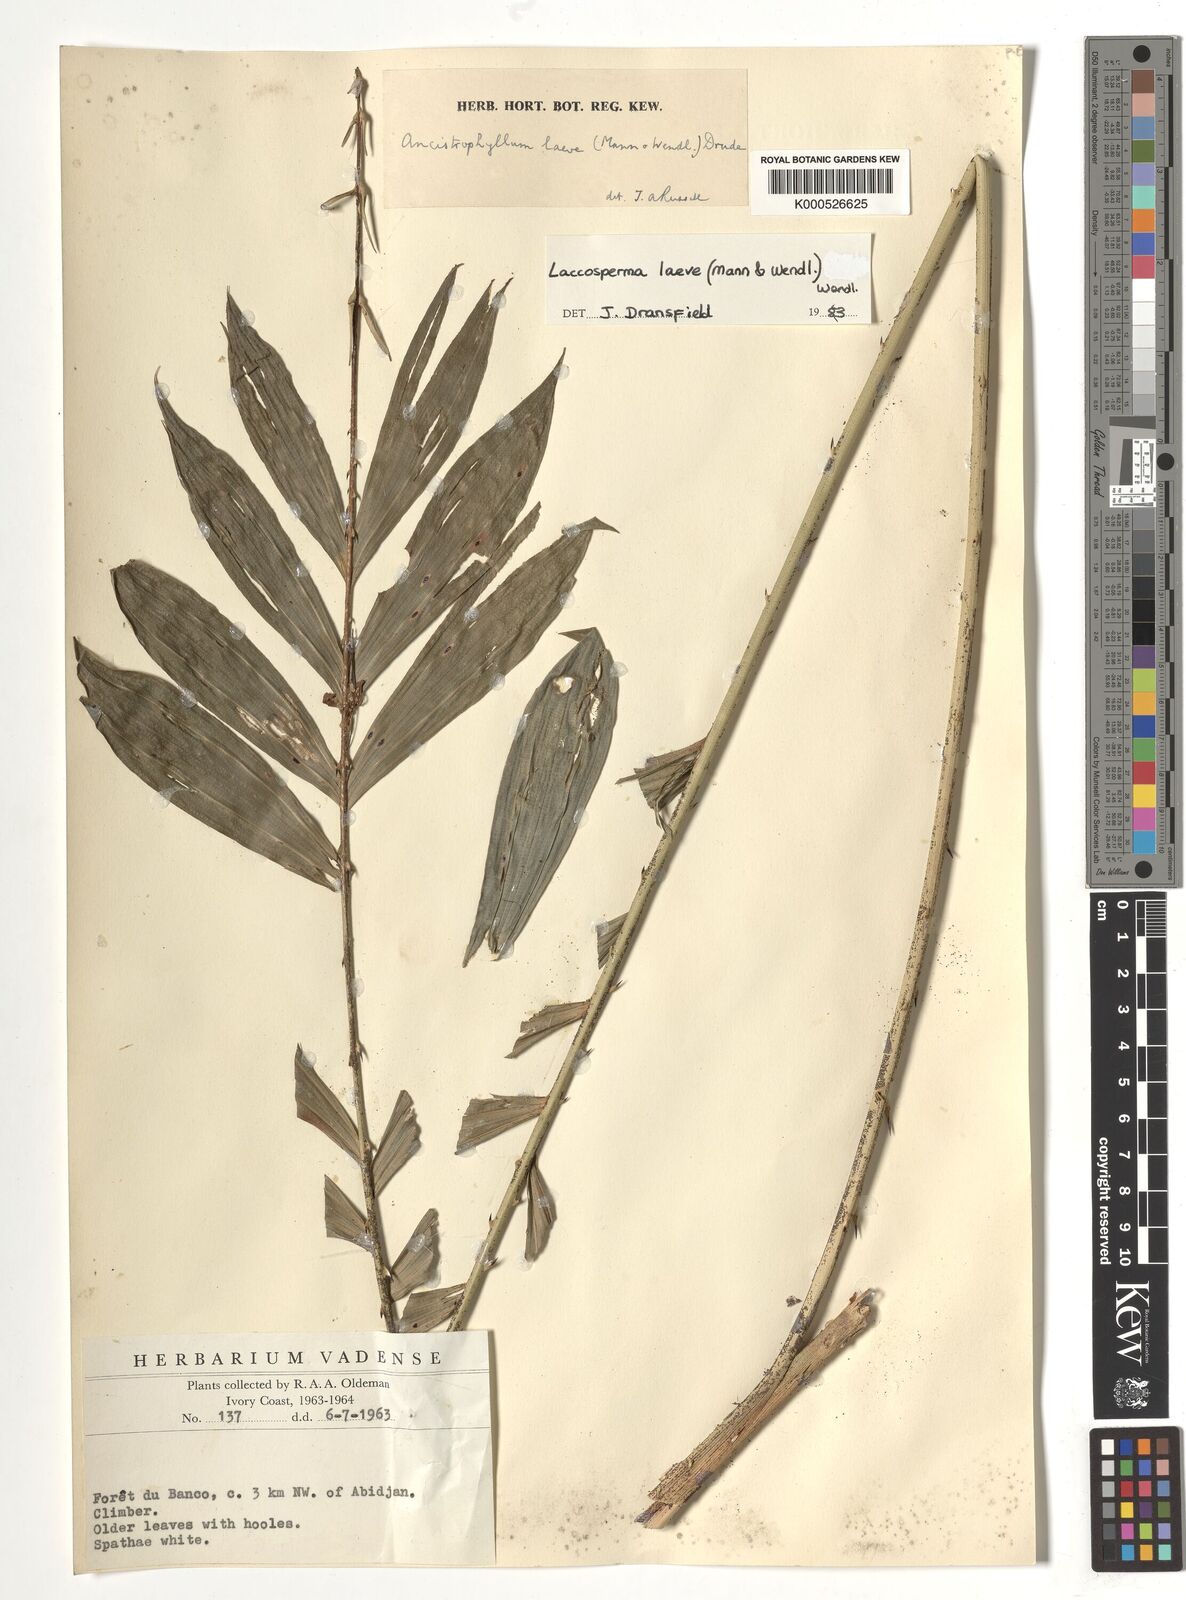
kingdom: Plantae
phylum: Tracheophyta
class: Liliopsida
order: Arecales
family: Arecaceae
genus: Laccosperma
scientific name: Laccosperma laeve
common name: Rattan
